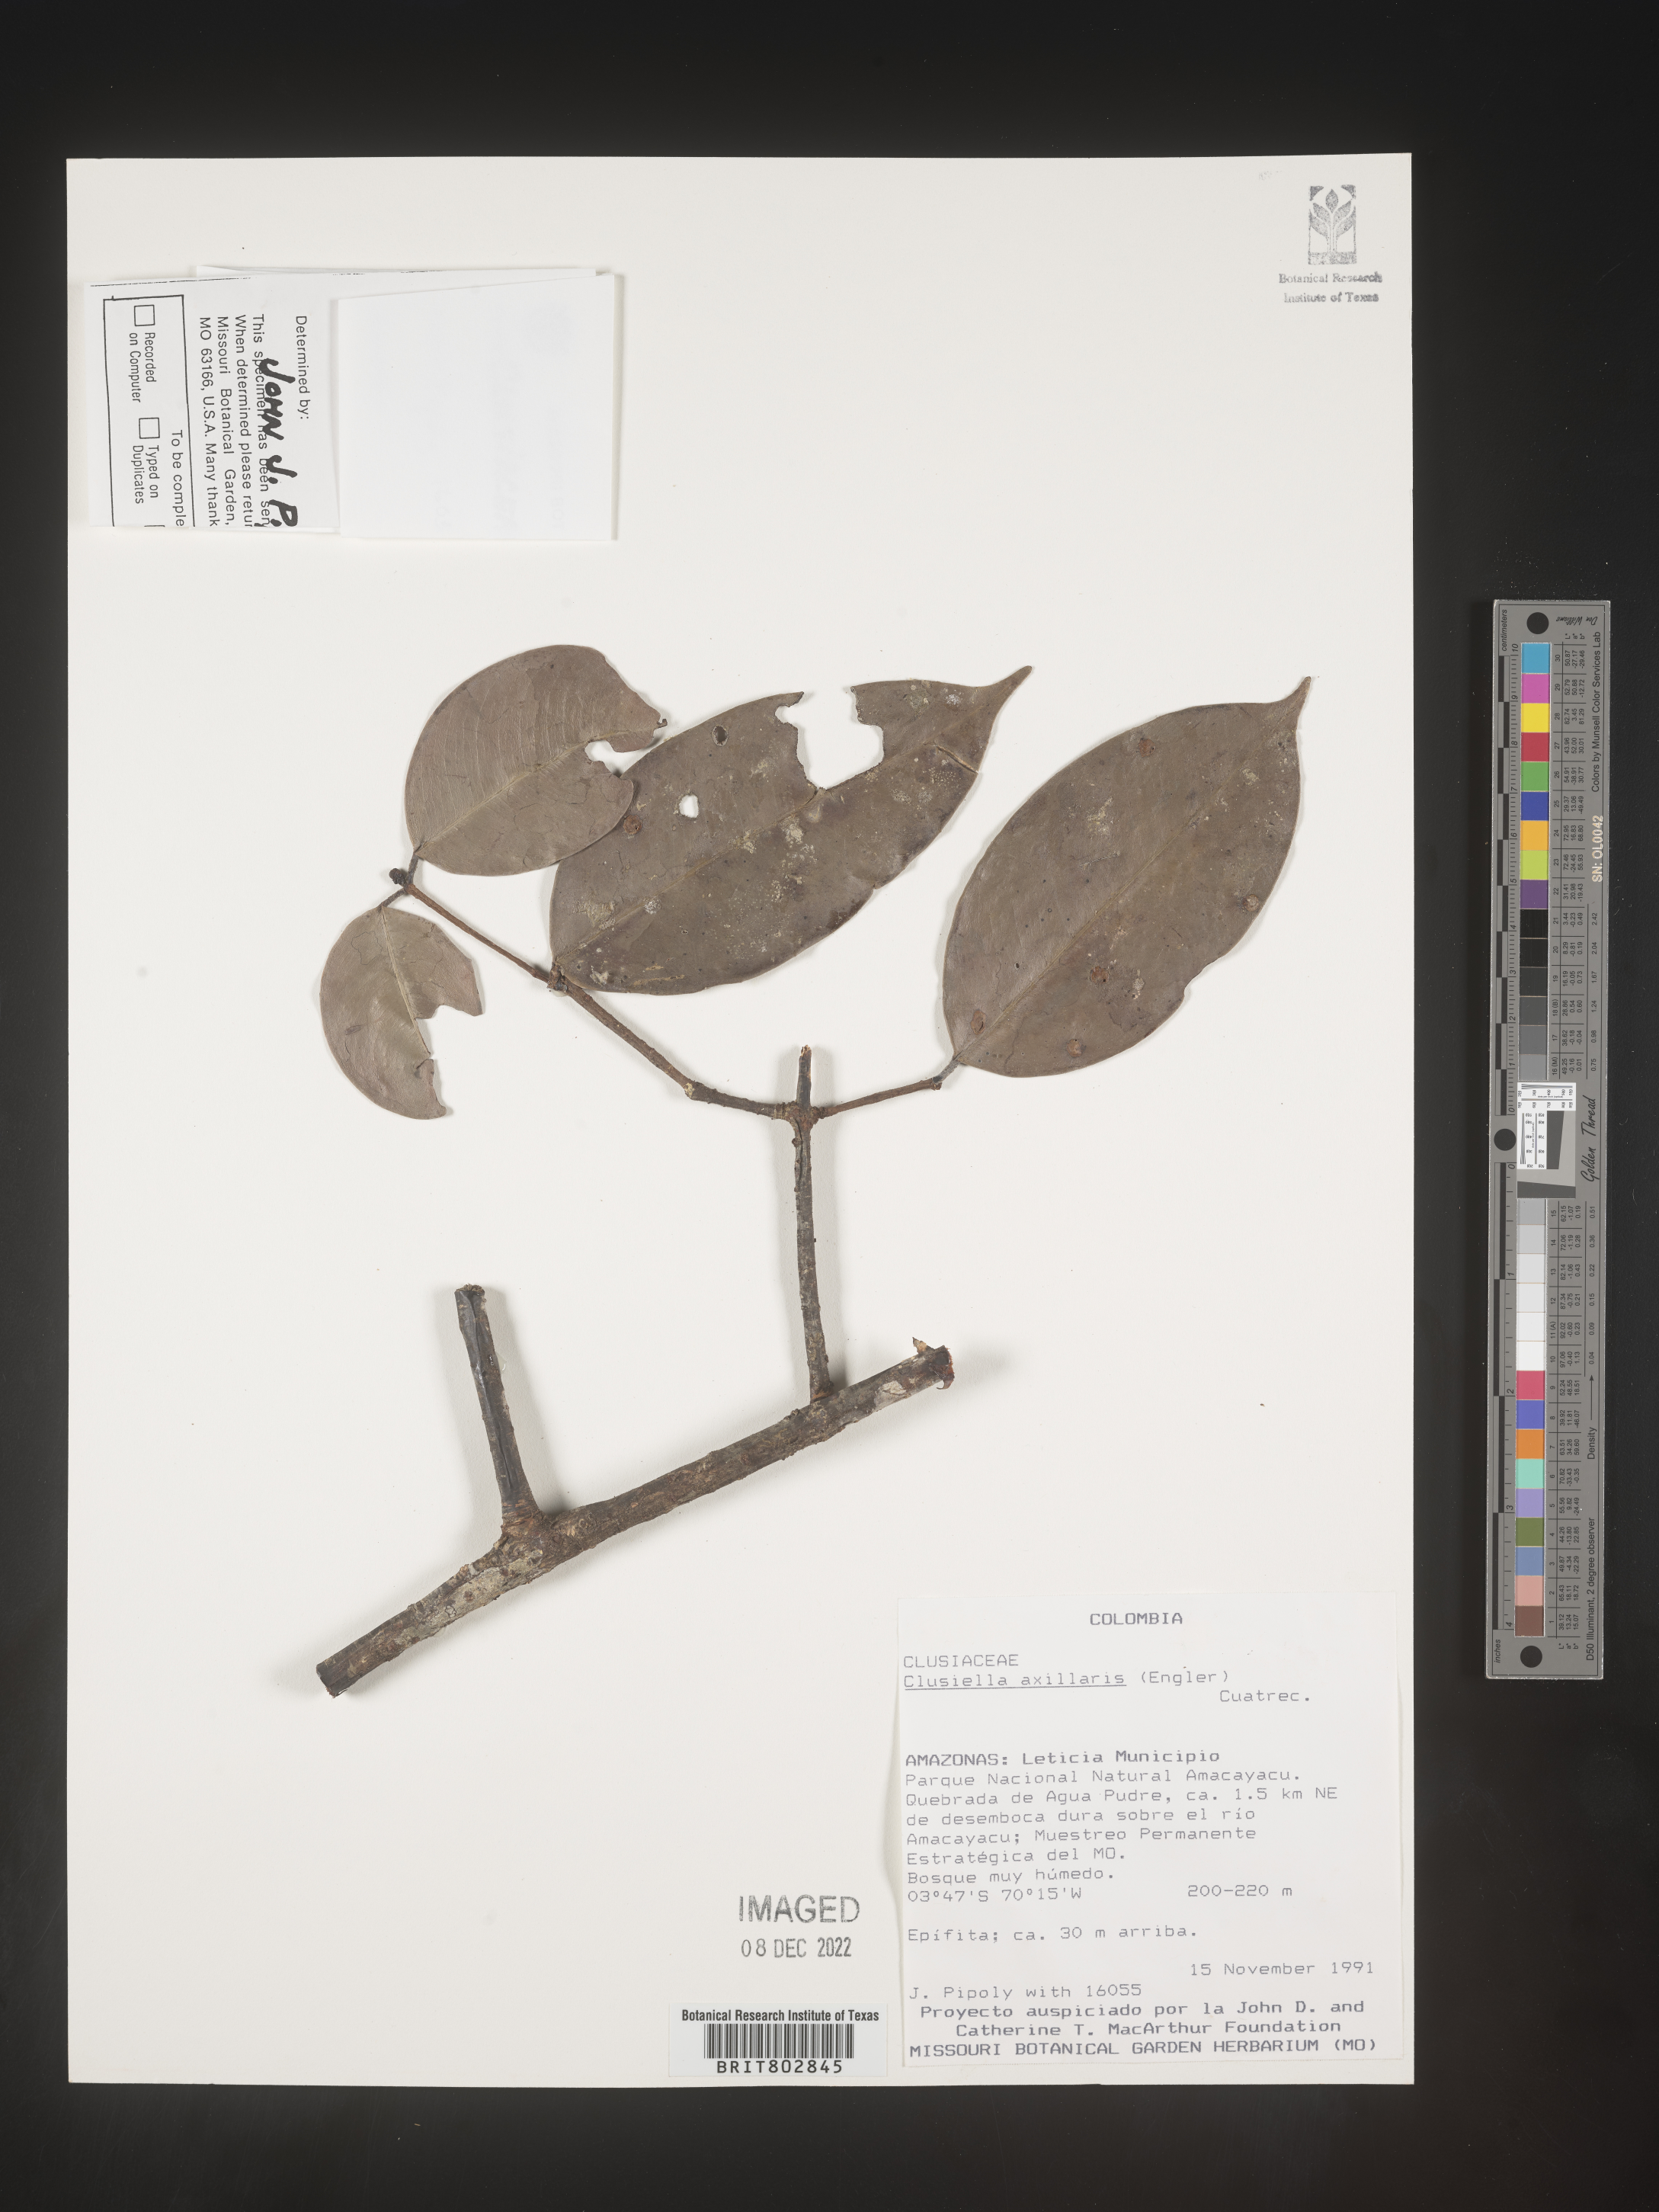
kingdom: Plantae
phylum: Tracheophyta
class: Magnoliopsida
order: Malpighiales
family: Calophyllaceae
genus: Clusiella
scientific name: Clusiella
